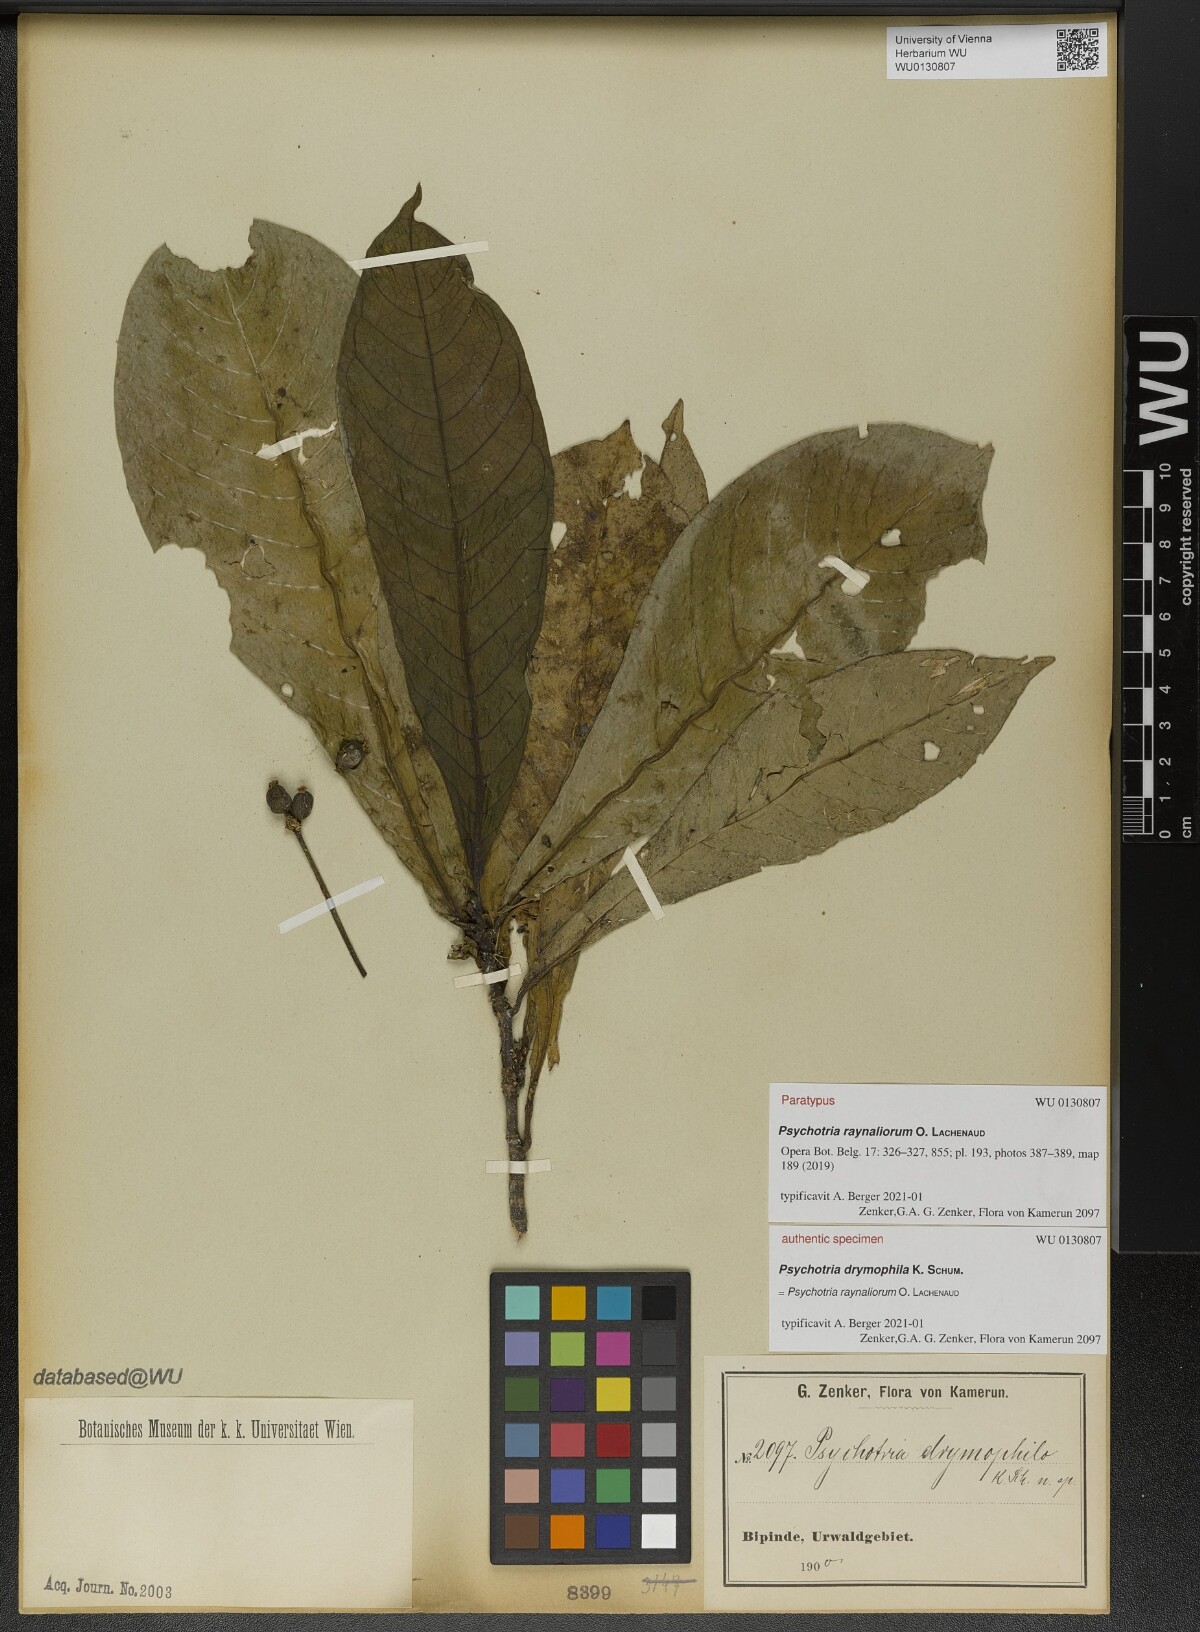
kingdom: Plantae
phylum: Tracheophyta
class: Magnoliopsida
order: Gentianales
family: Rubiaceae
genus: Psychotria
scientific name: Psychotria raynaliorum
